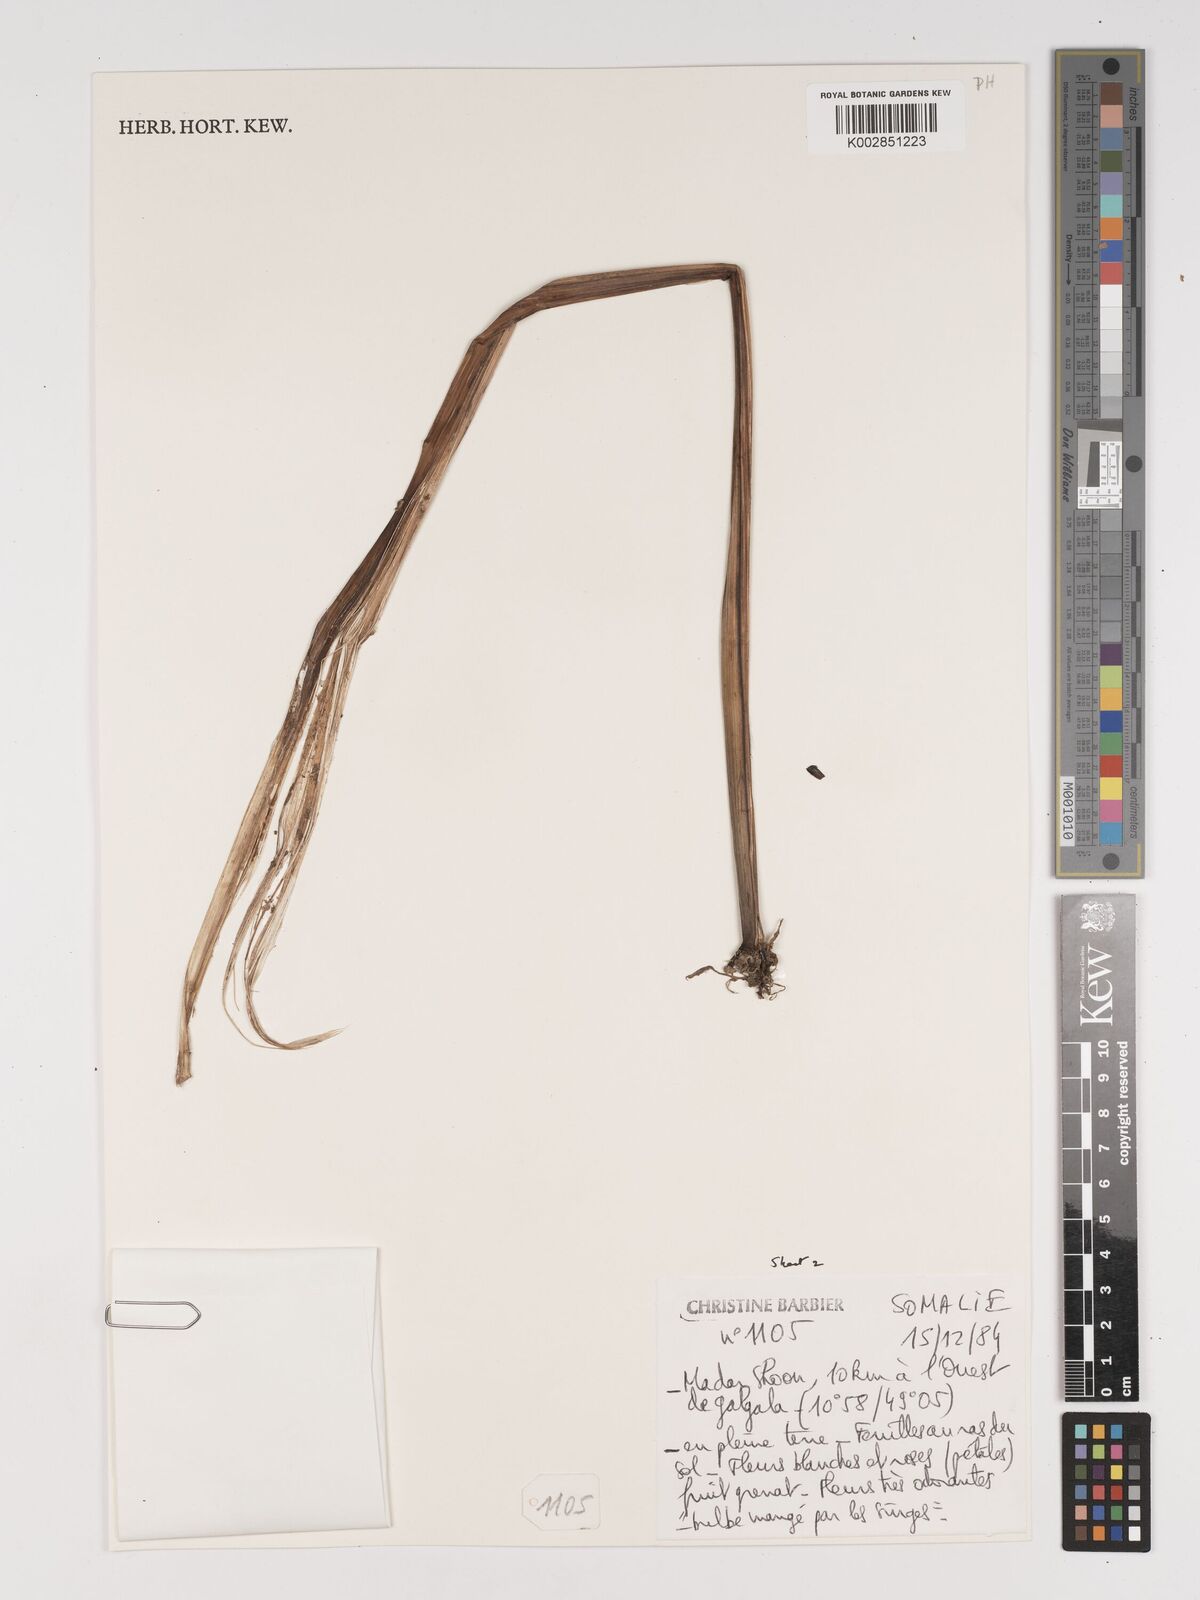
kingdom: Plantae
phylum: Tracheophyta
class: Liliopsida
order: Asparagales
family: Amaryllidaceae
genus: Crinum
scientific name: Crinum abyssinicum
